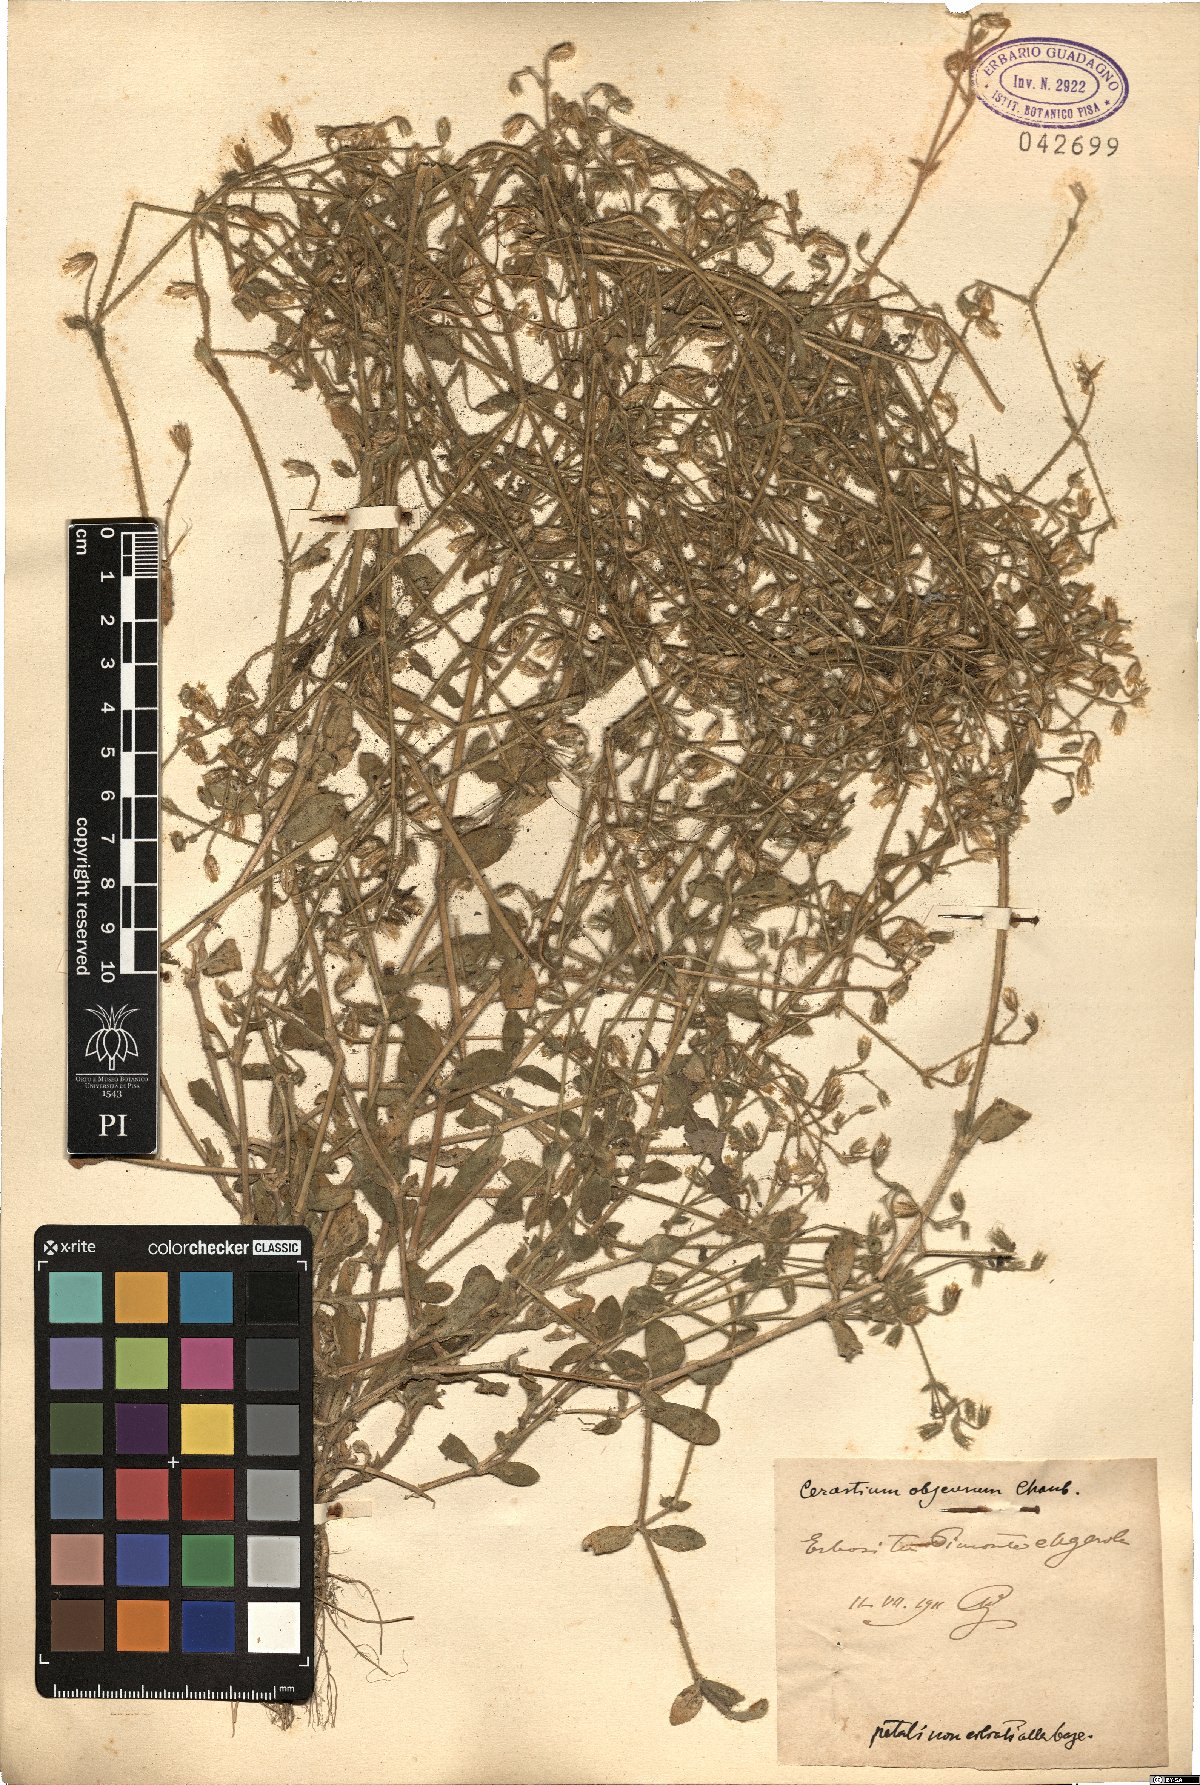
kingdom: Plantae
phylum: Tracheophyta
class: Magnoliopsida
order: Caryophyllales
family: Caryophyllaceae
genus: Cerastium
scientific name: Cerastium pumilum
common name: Dwarf mouse-ear
